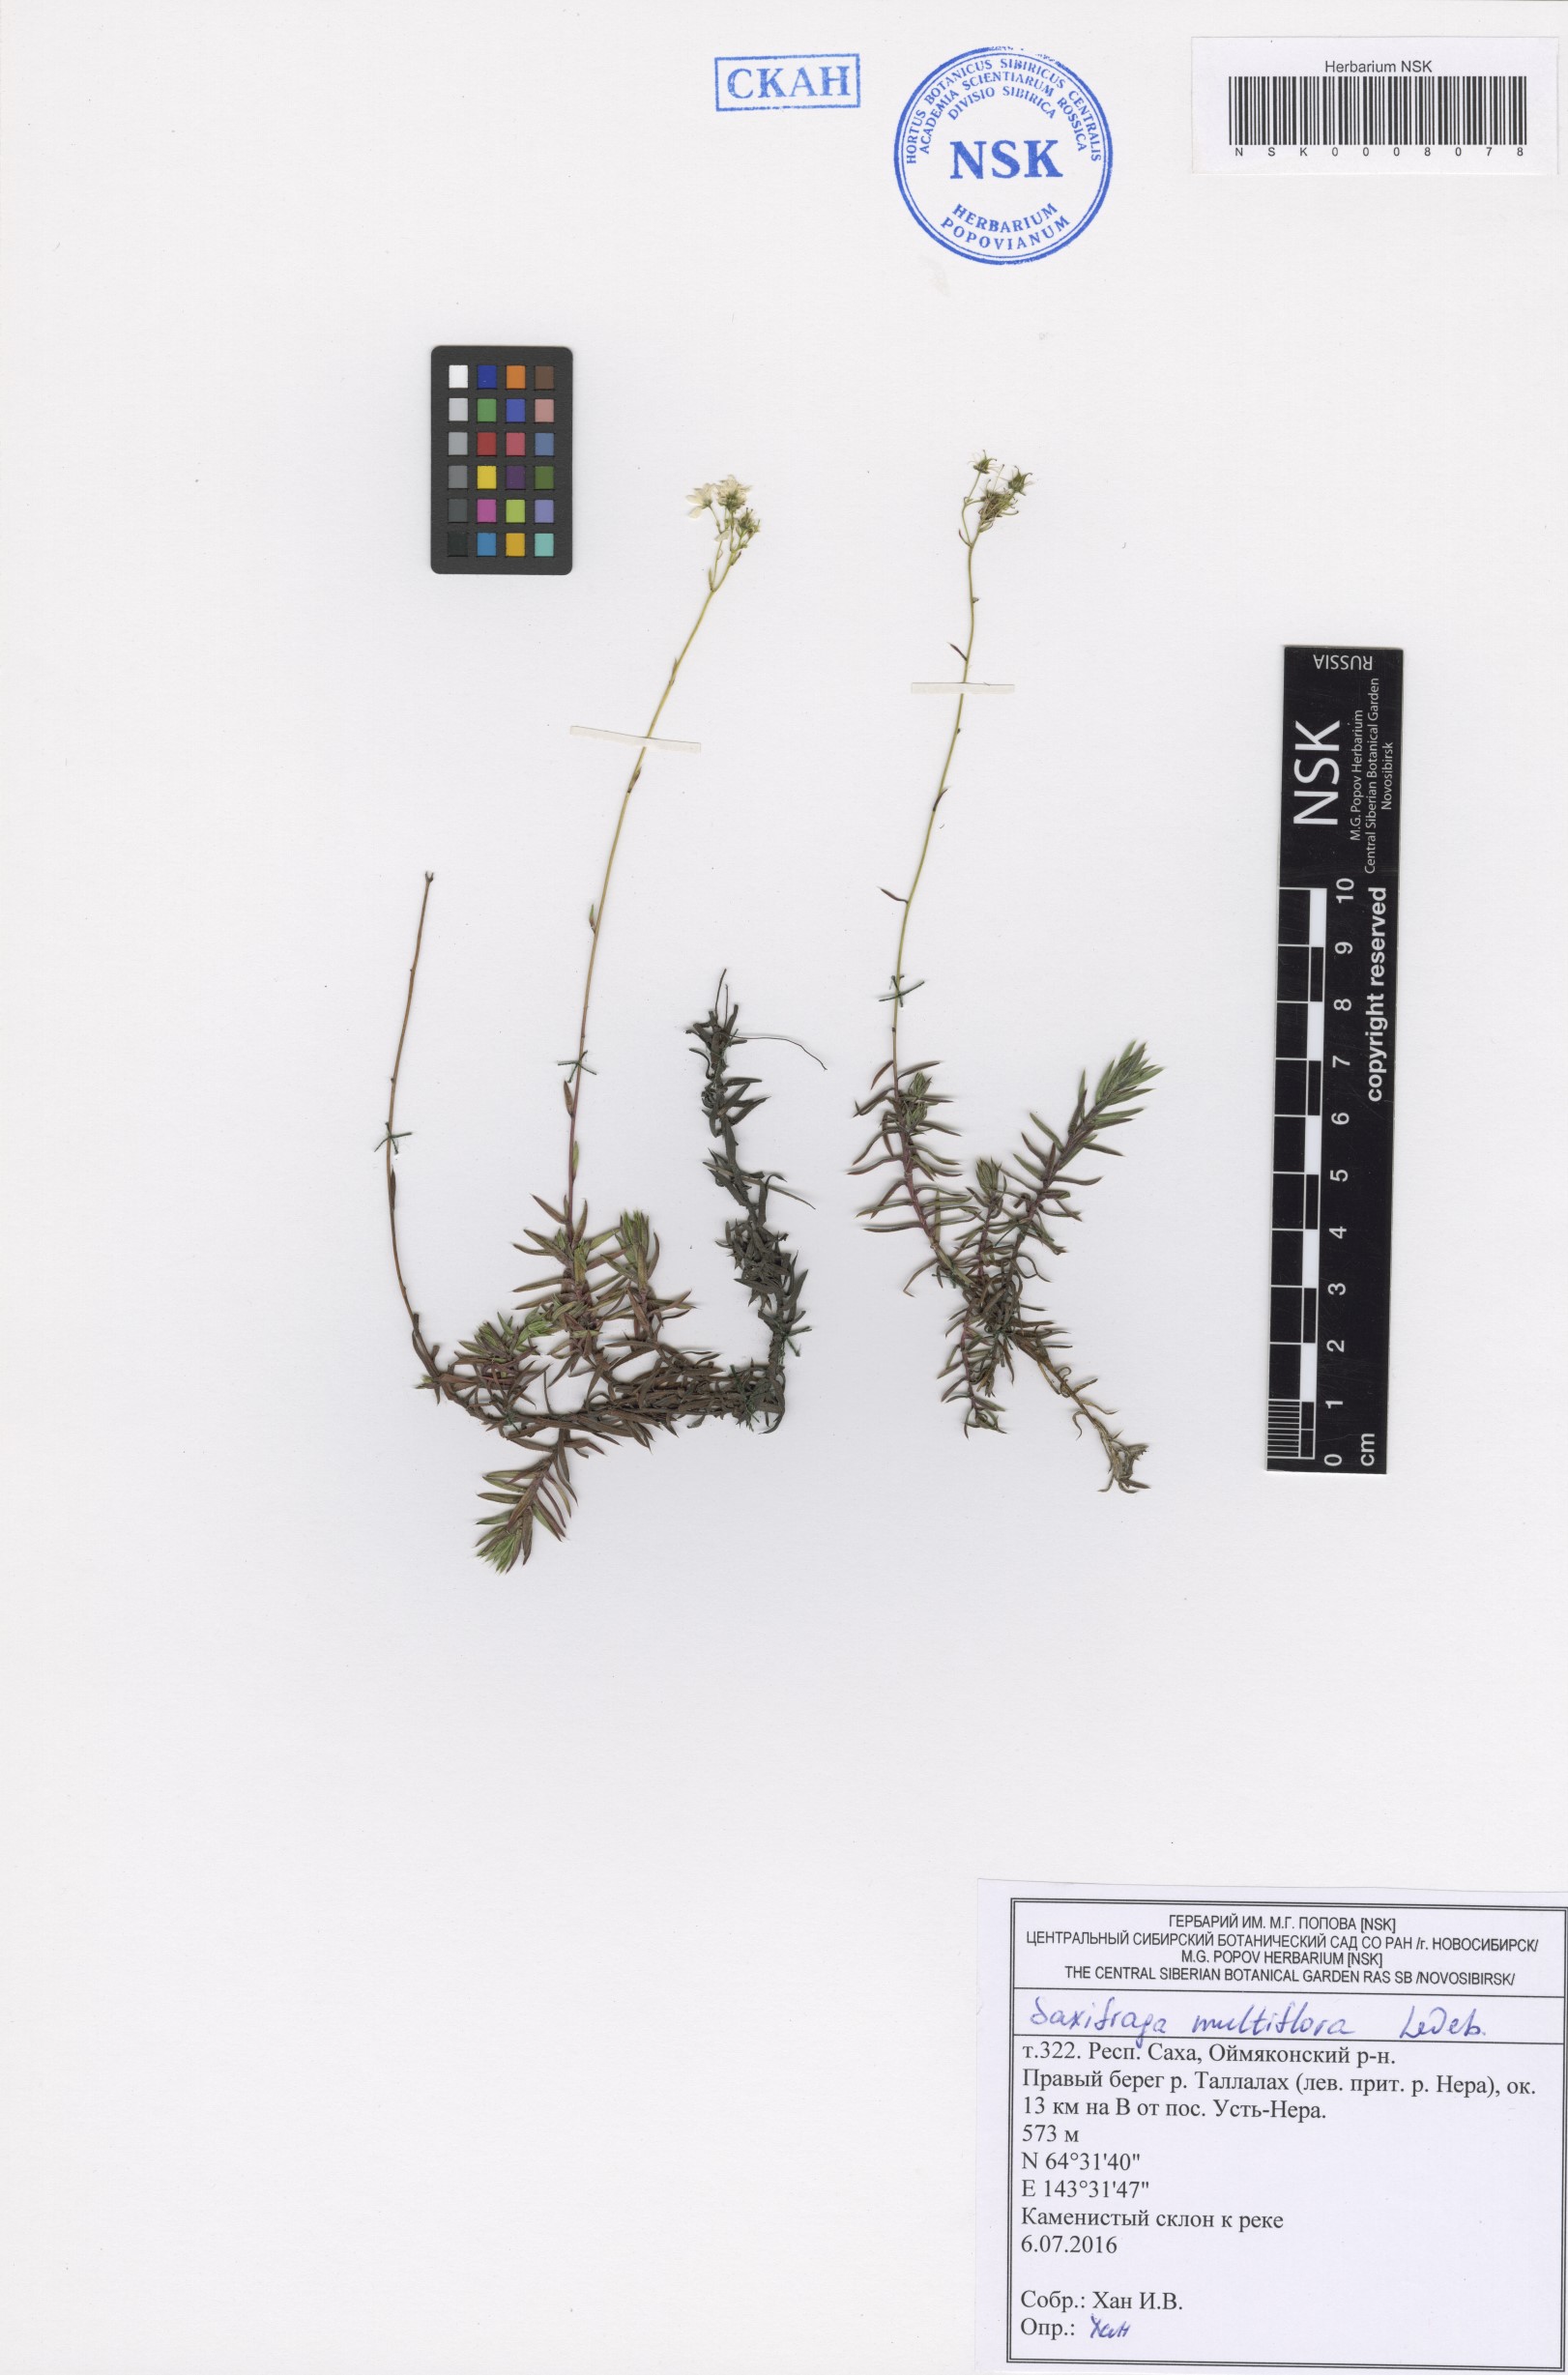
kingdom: Plantae
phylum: Tracheophyta
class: Magnoliopsida
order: Saxifragales
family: Saxifragaceae
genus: Saxifraga
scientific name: Saxifraga omolojensis
